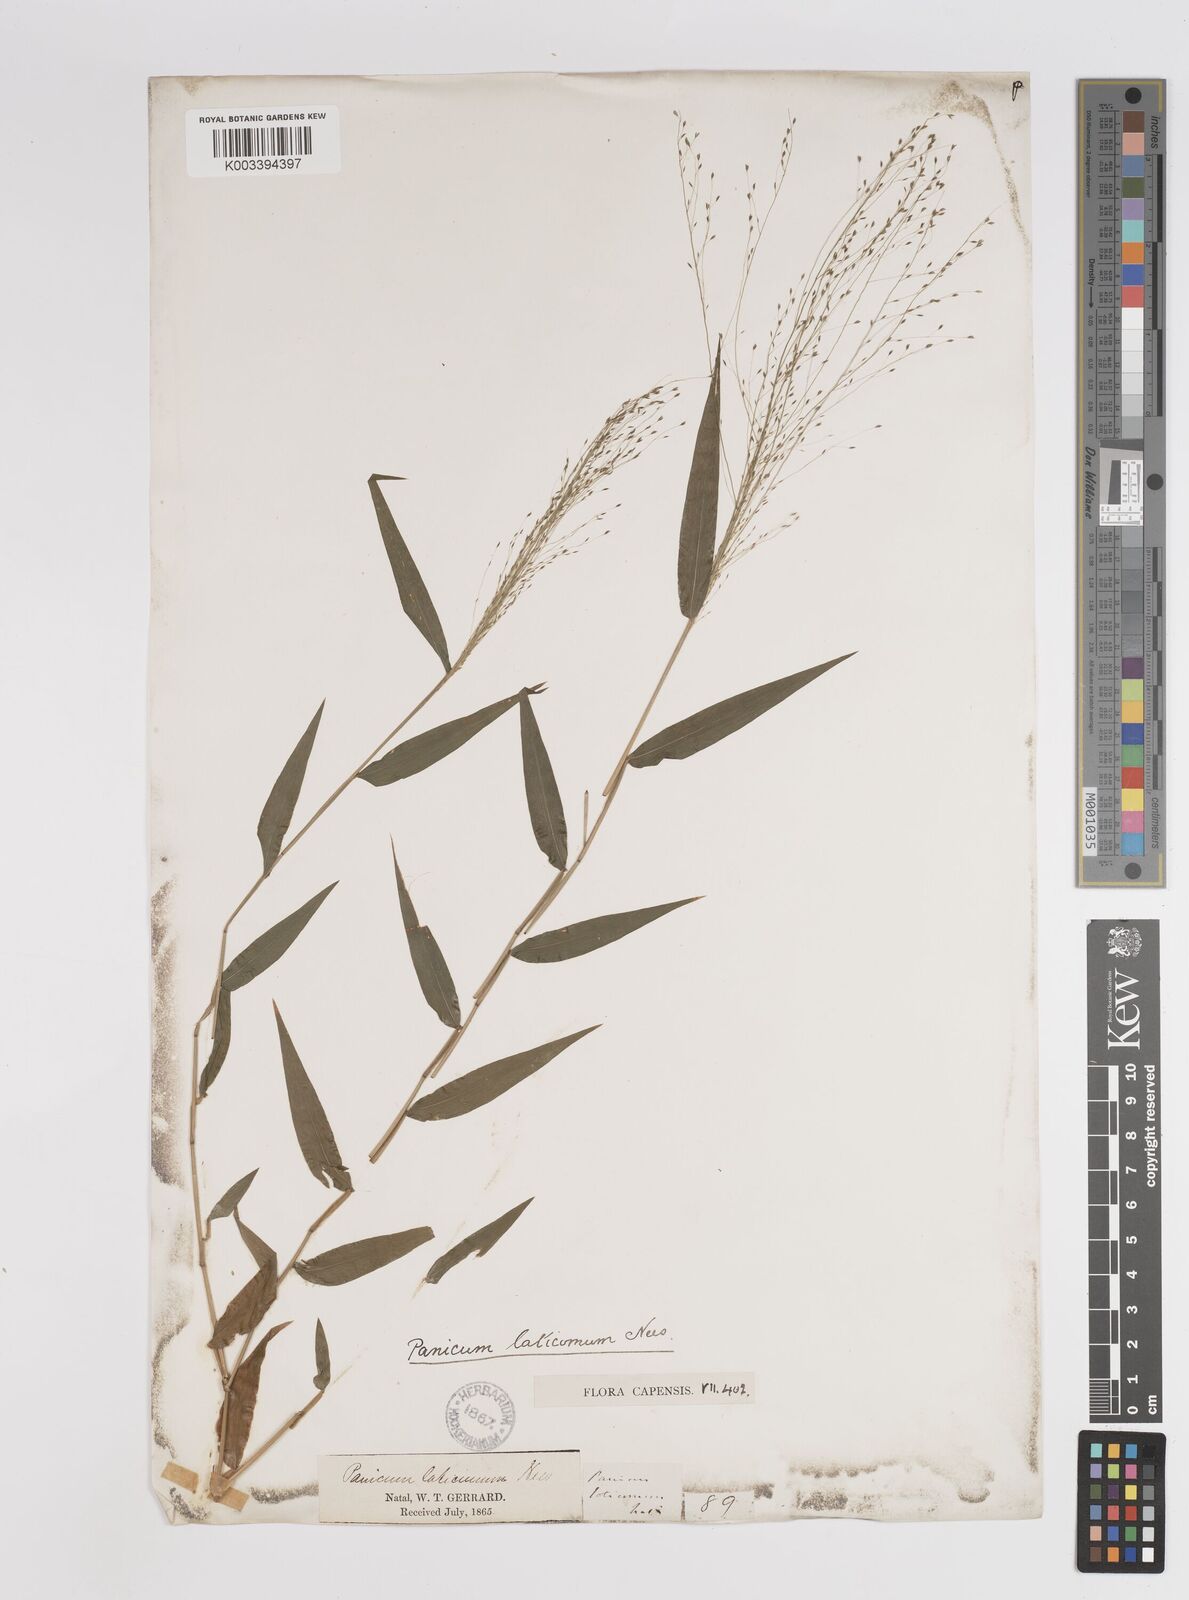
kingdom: Plantae
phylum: Tracheophyta
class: Liliopsida
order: Poales
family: Poaceae
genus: Panicum
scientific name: Panicum laticomum
